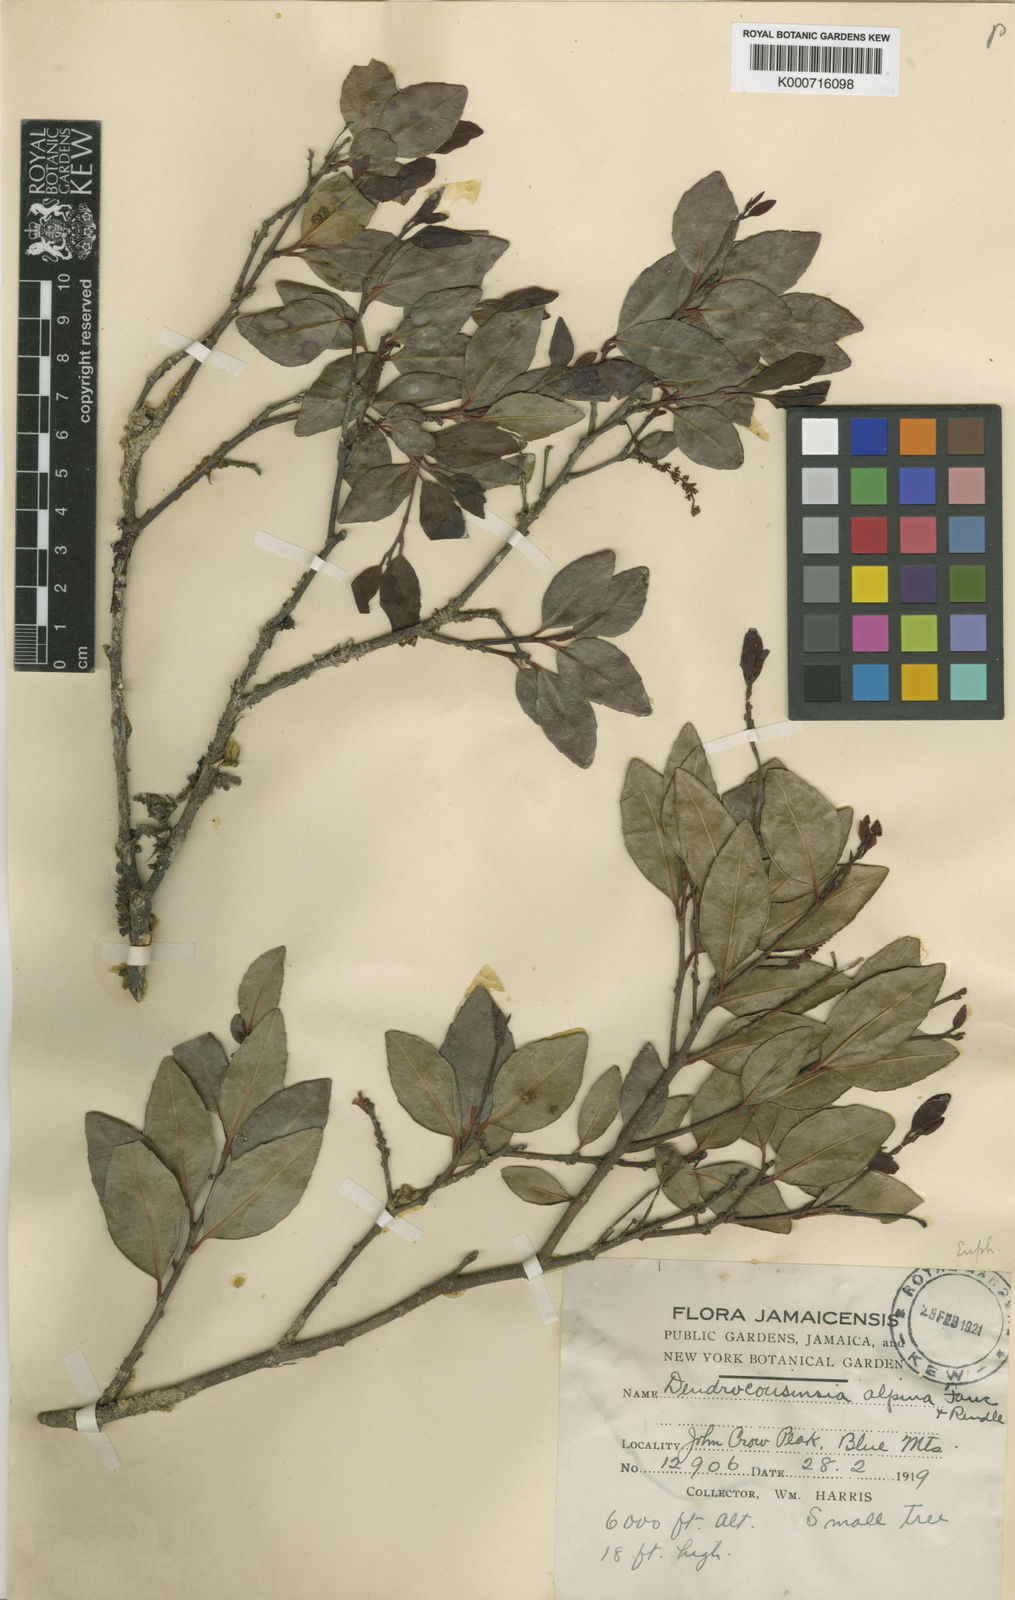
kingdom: Plantae
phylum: Tracheophyta
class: Magnoliopsida
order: Malpighiales
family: Euphorbiaceae
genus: Dendrocousinsia
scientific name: Dendrocousinsia alpina
